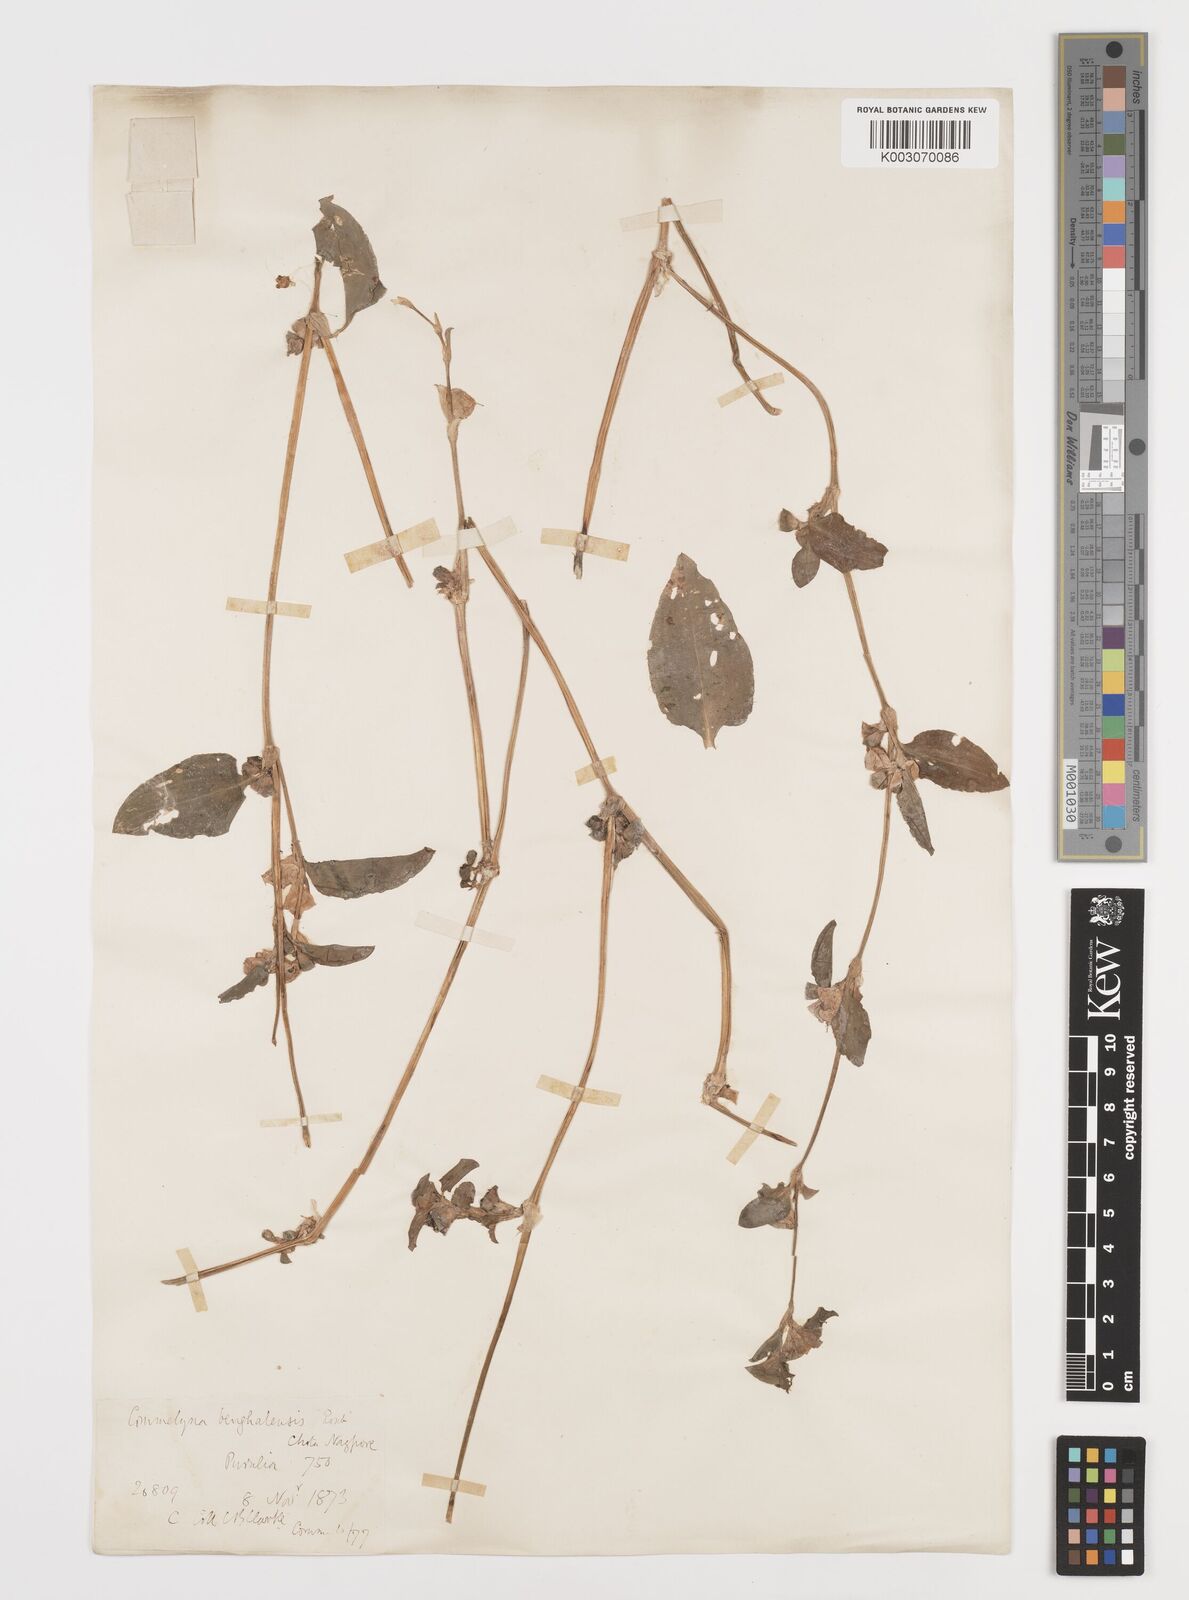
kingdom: Plantae
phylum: Tracheophyta
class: Liliopsida
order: Commelinales
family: Commelinaceae
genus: Commelina
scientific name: Commelina benghalensis
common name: Jio
